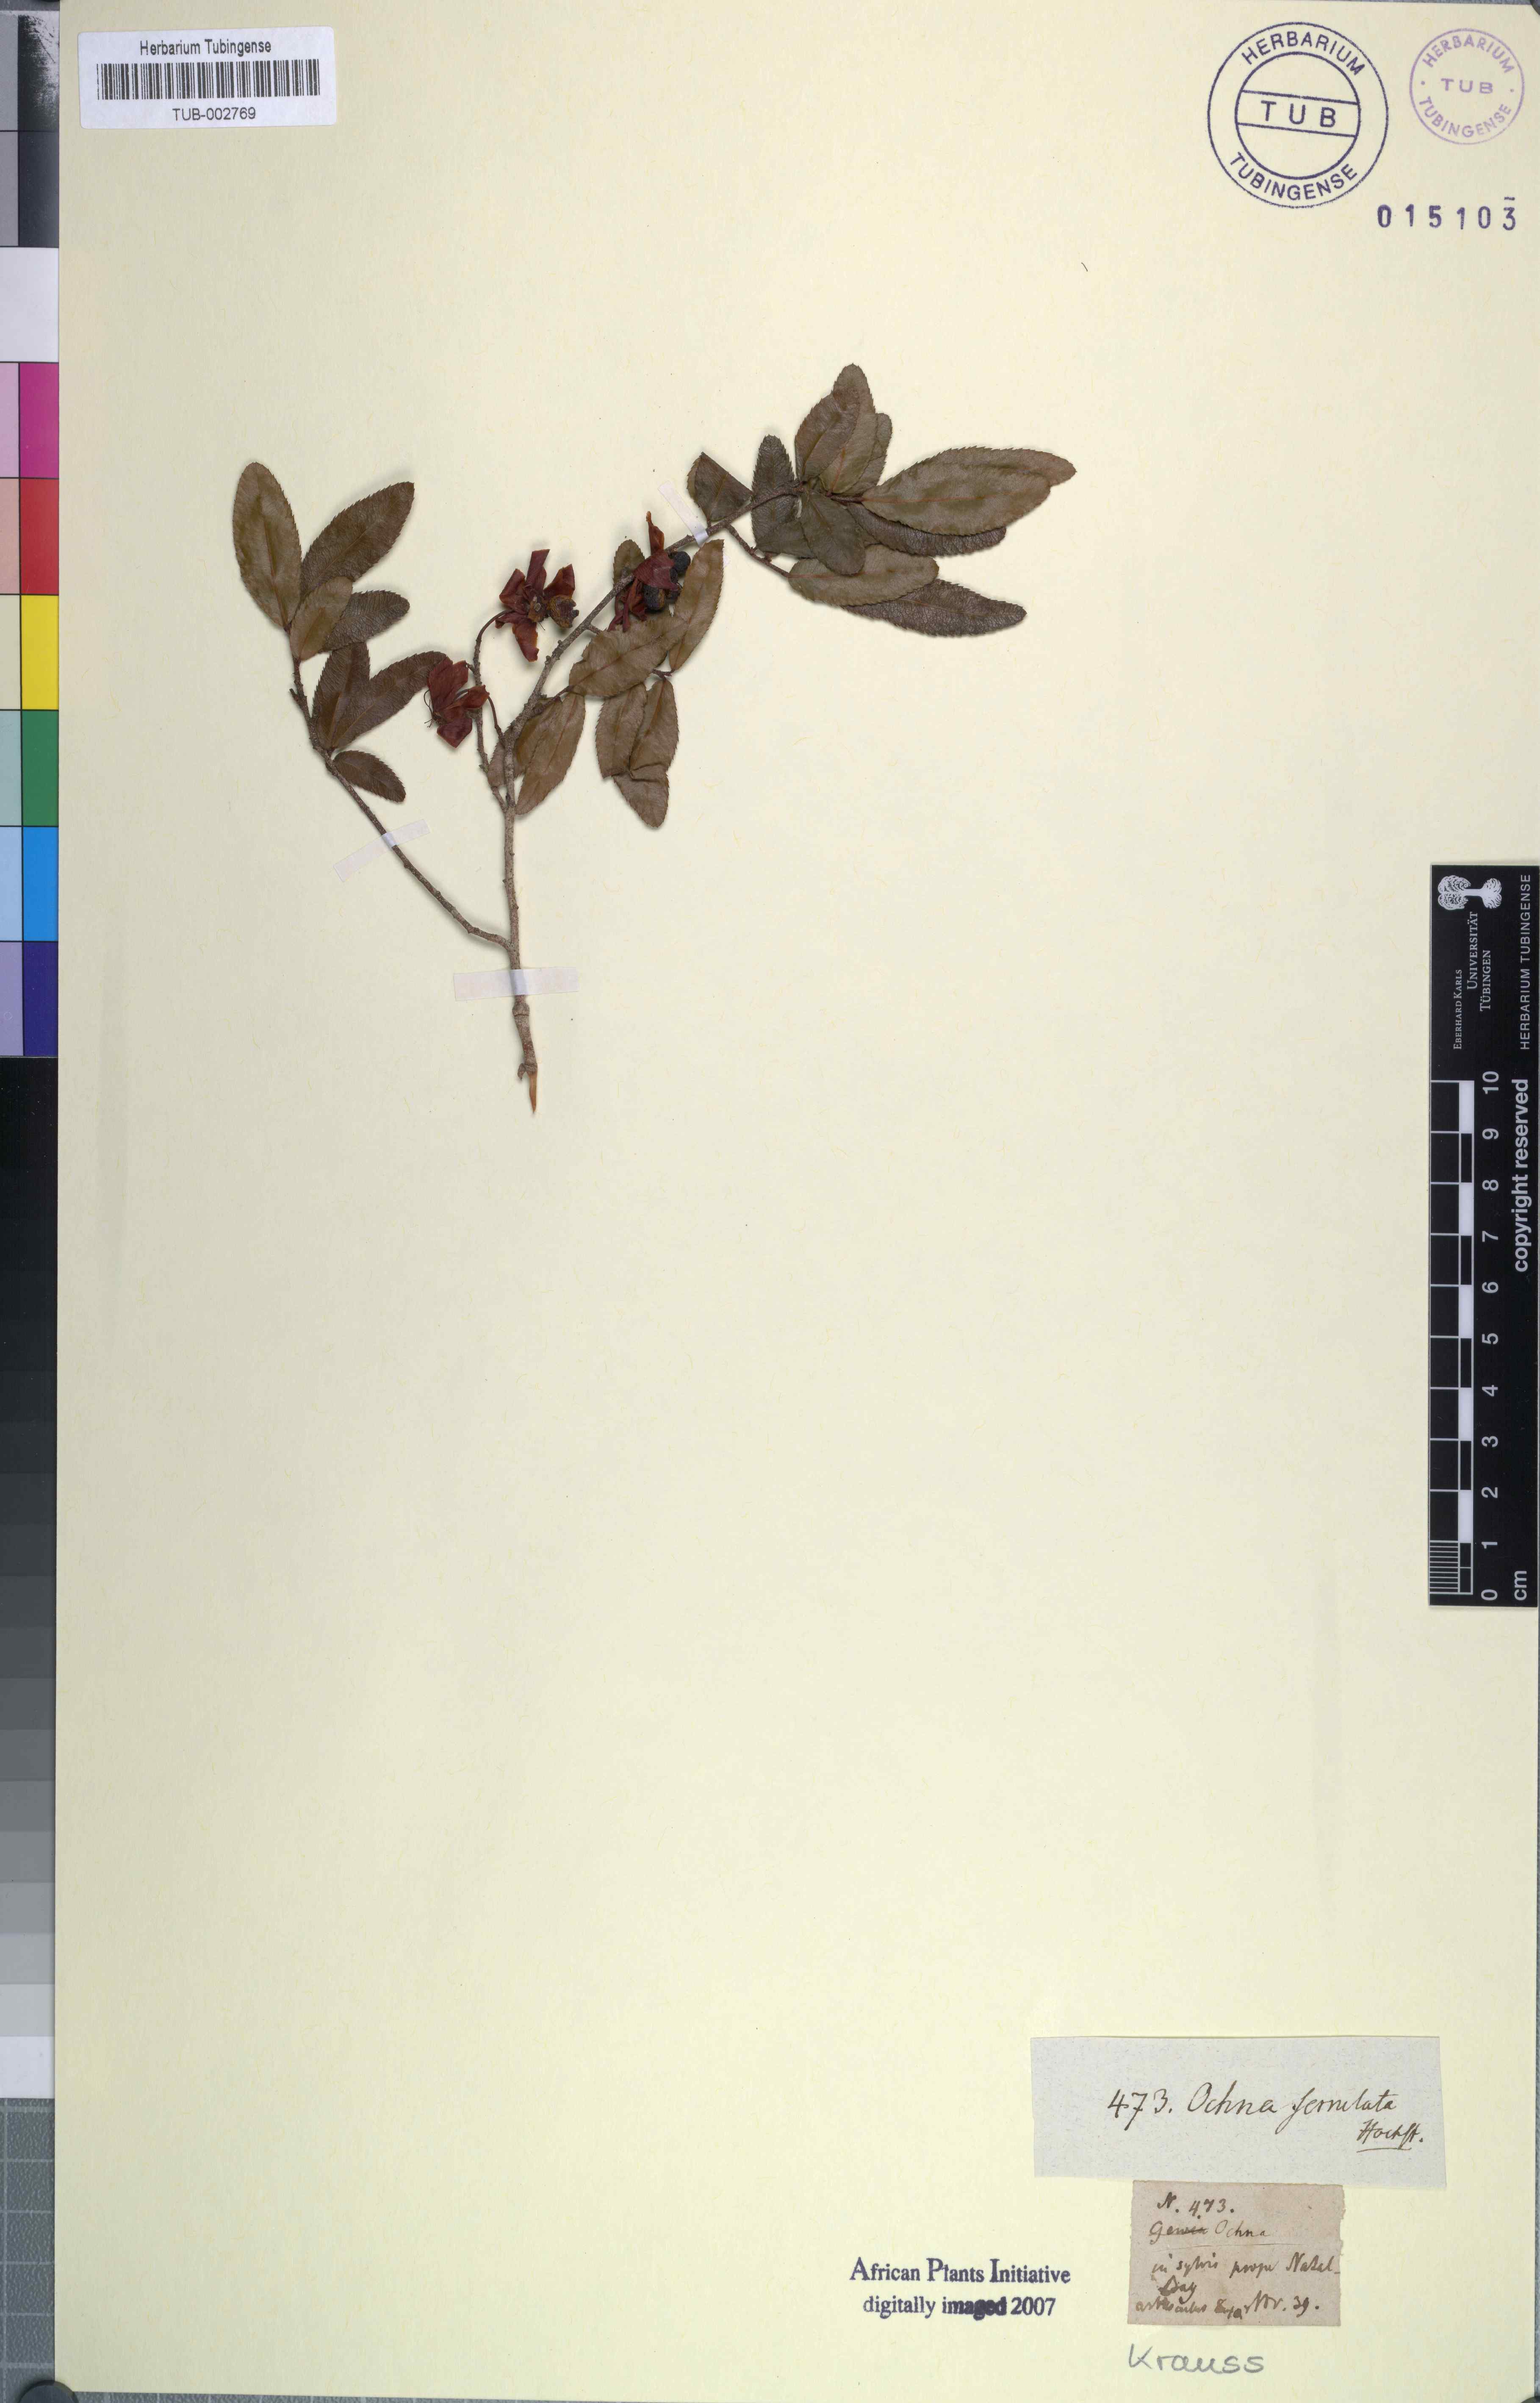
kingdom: Plantae
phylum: Tracheophyta
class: Magnoliopsida
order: Malpighiales
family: Ochnaceae
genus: Ochna
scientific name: Ochna serrulata
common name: Mickey mouse plant
